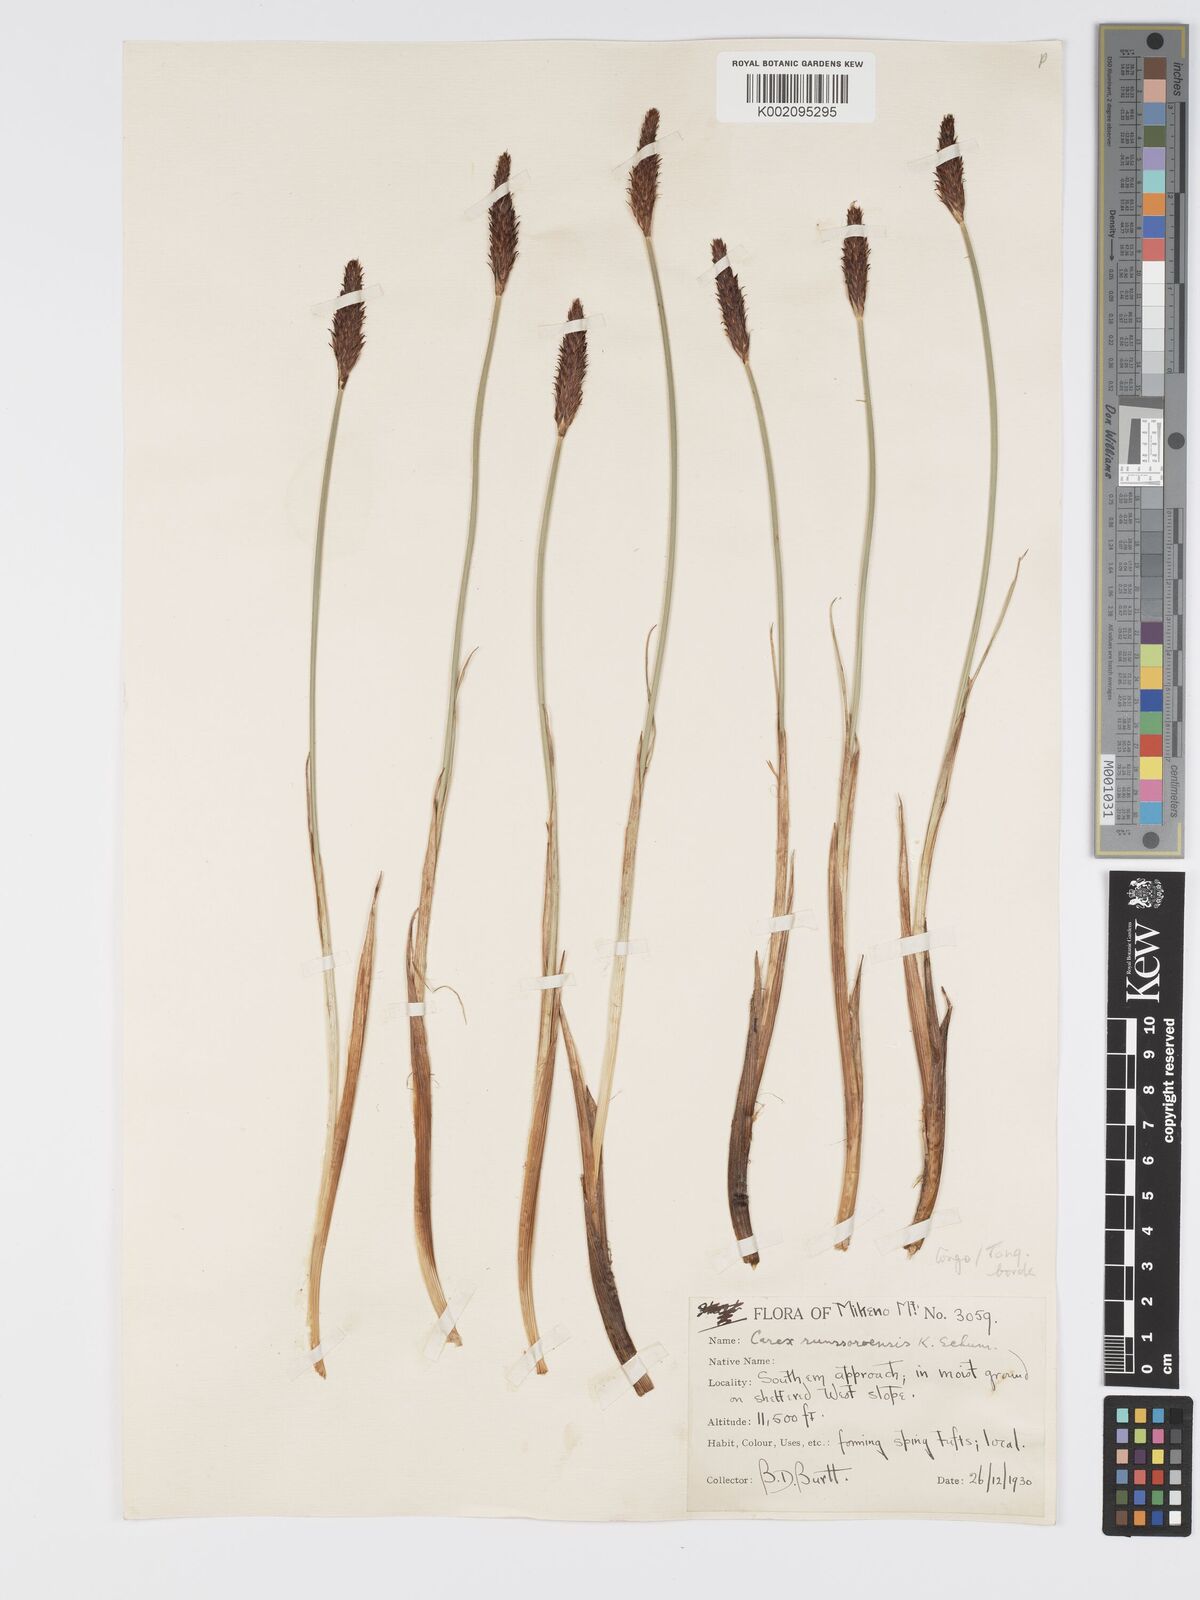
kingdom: Plantae
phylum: Tracheophyta
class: Liliopsida
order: Poales
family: Cyperaceae
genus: Carex
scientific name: Carex runssoroensis
